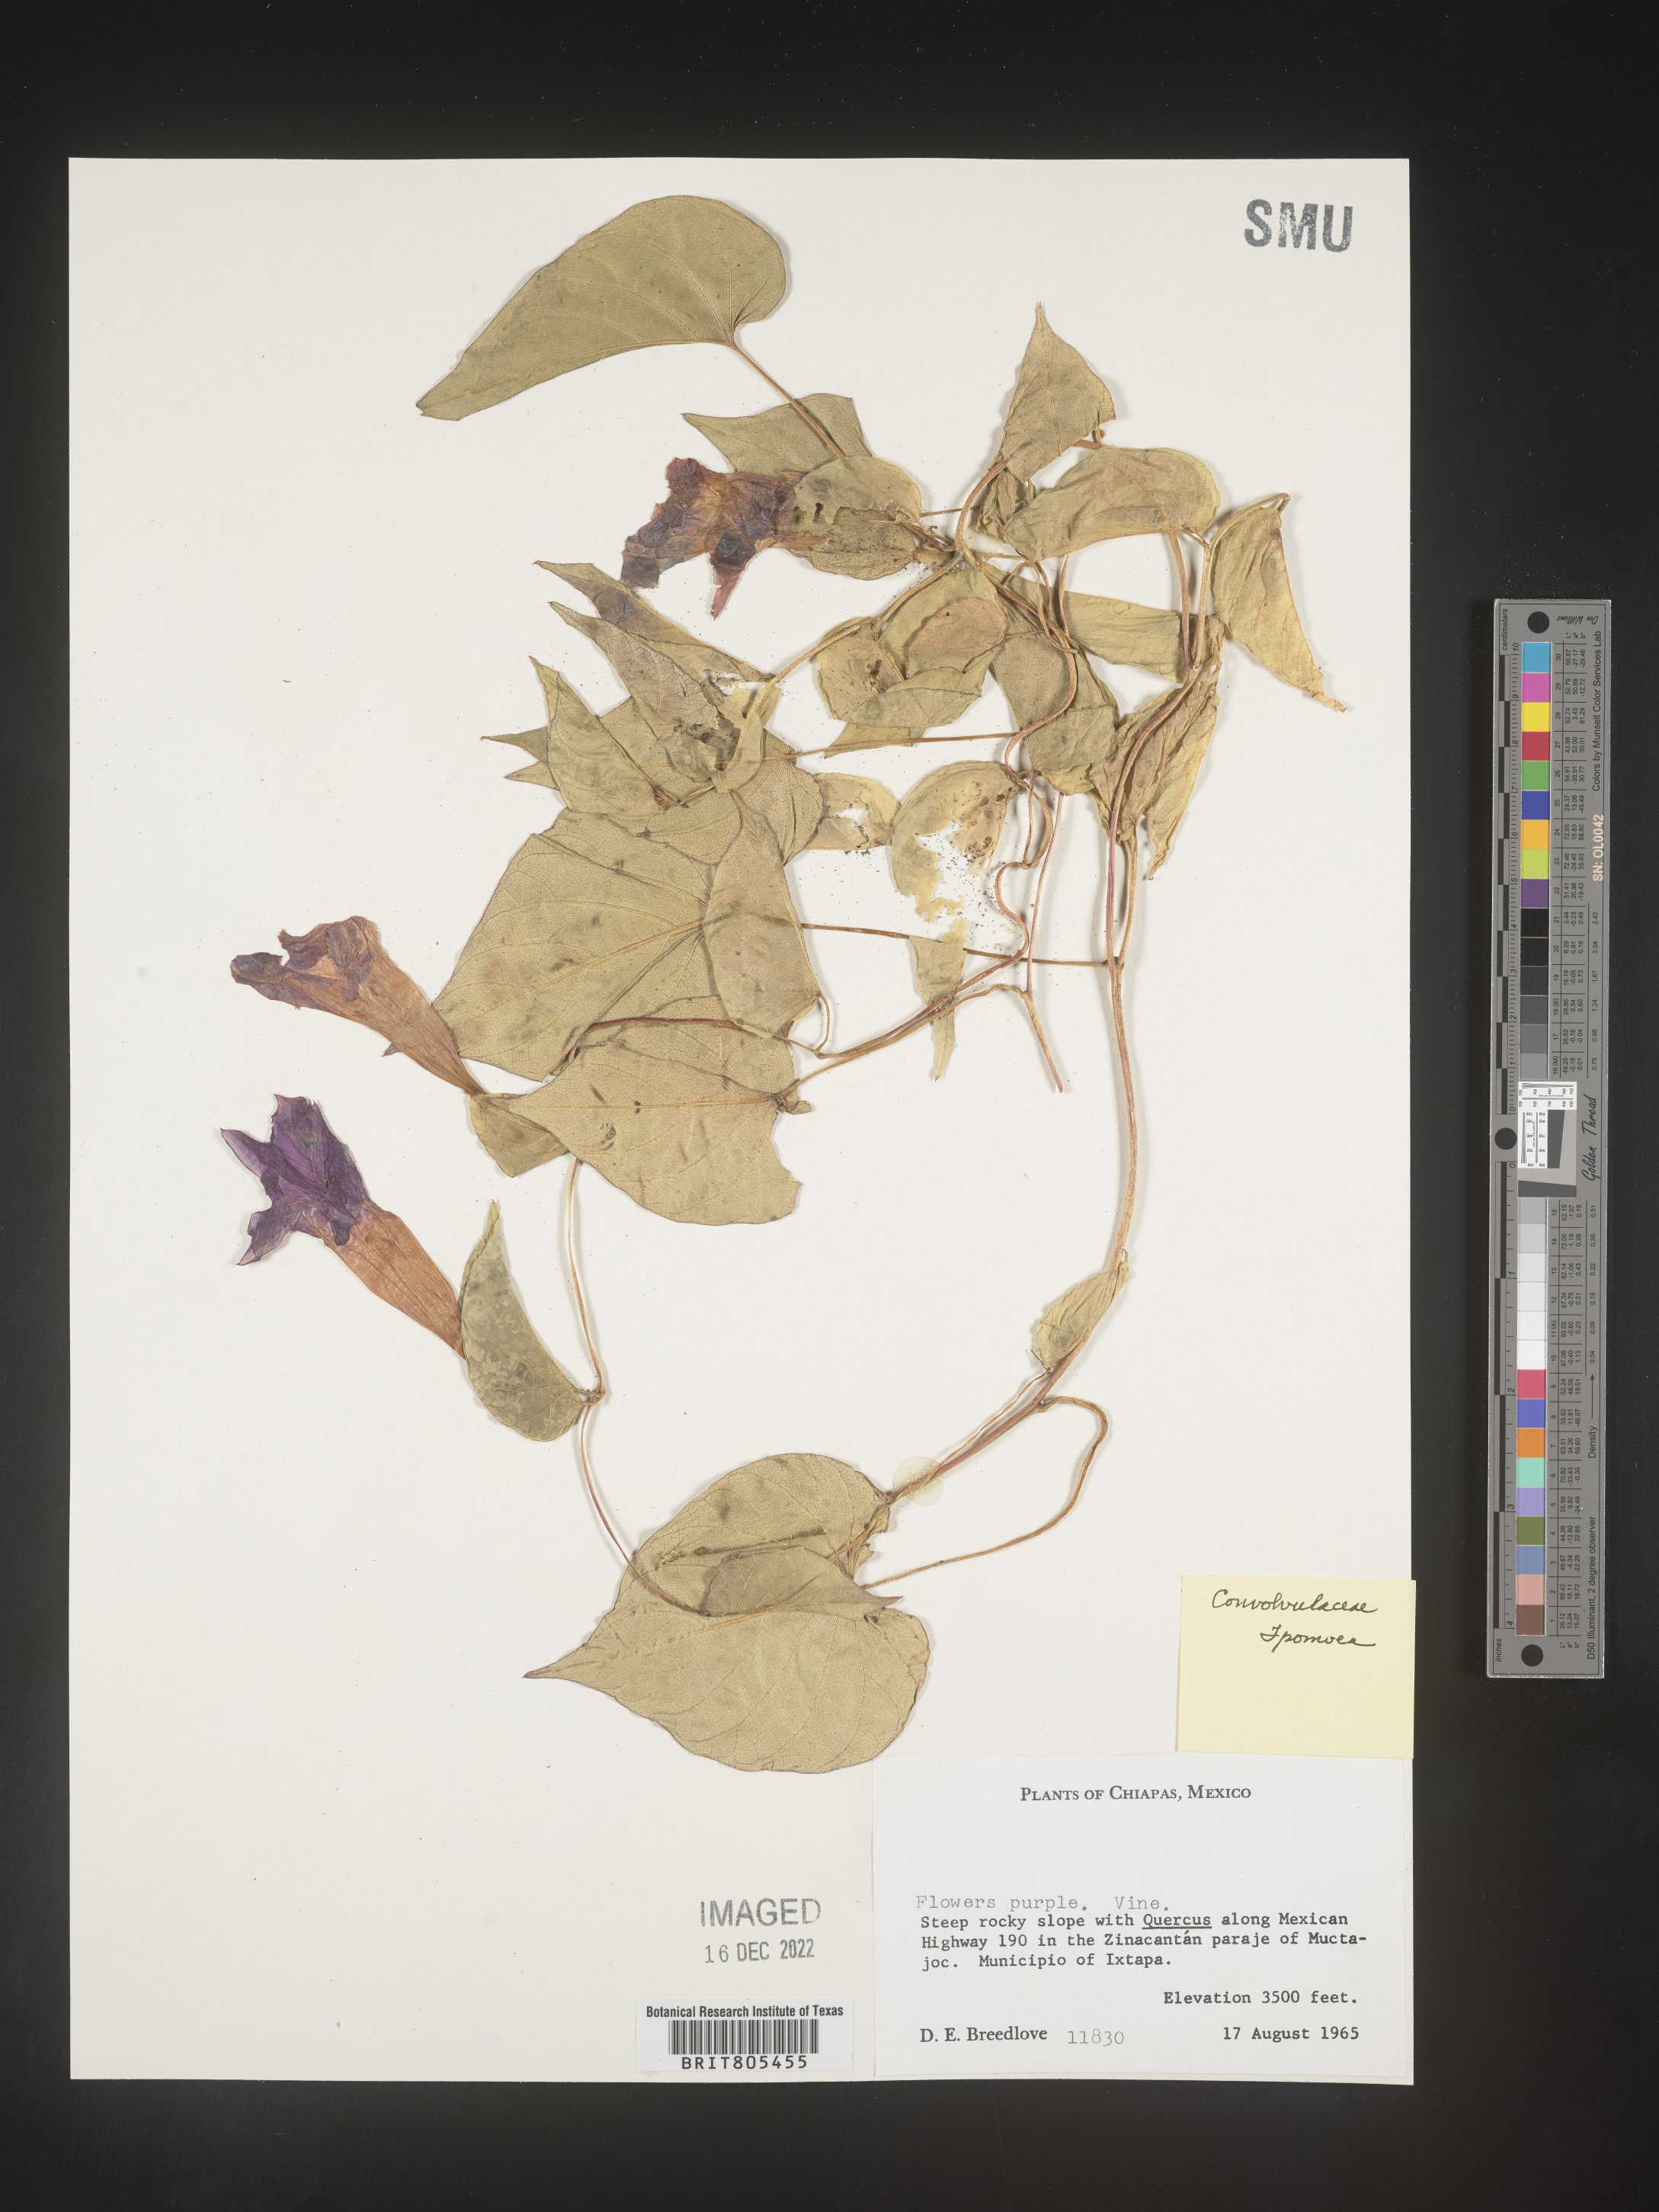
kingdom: Plantae
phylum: Tracheophyta
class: Magnoliopsida
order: Solanales
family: Convolvulaceae
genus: Ipomoea
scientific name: Ipomoea
